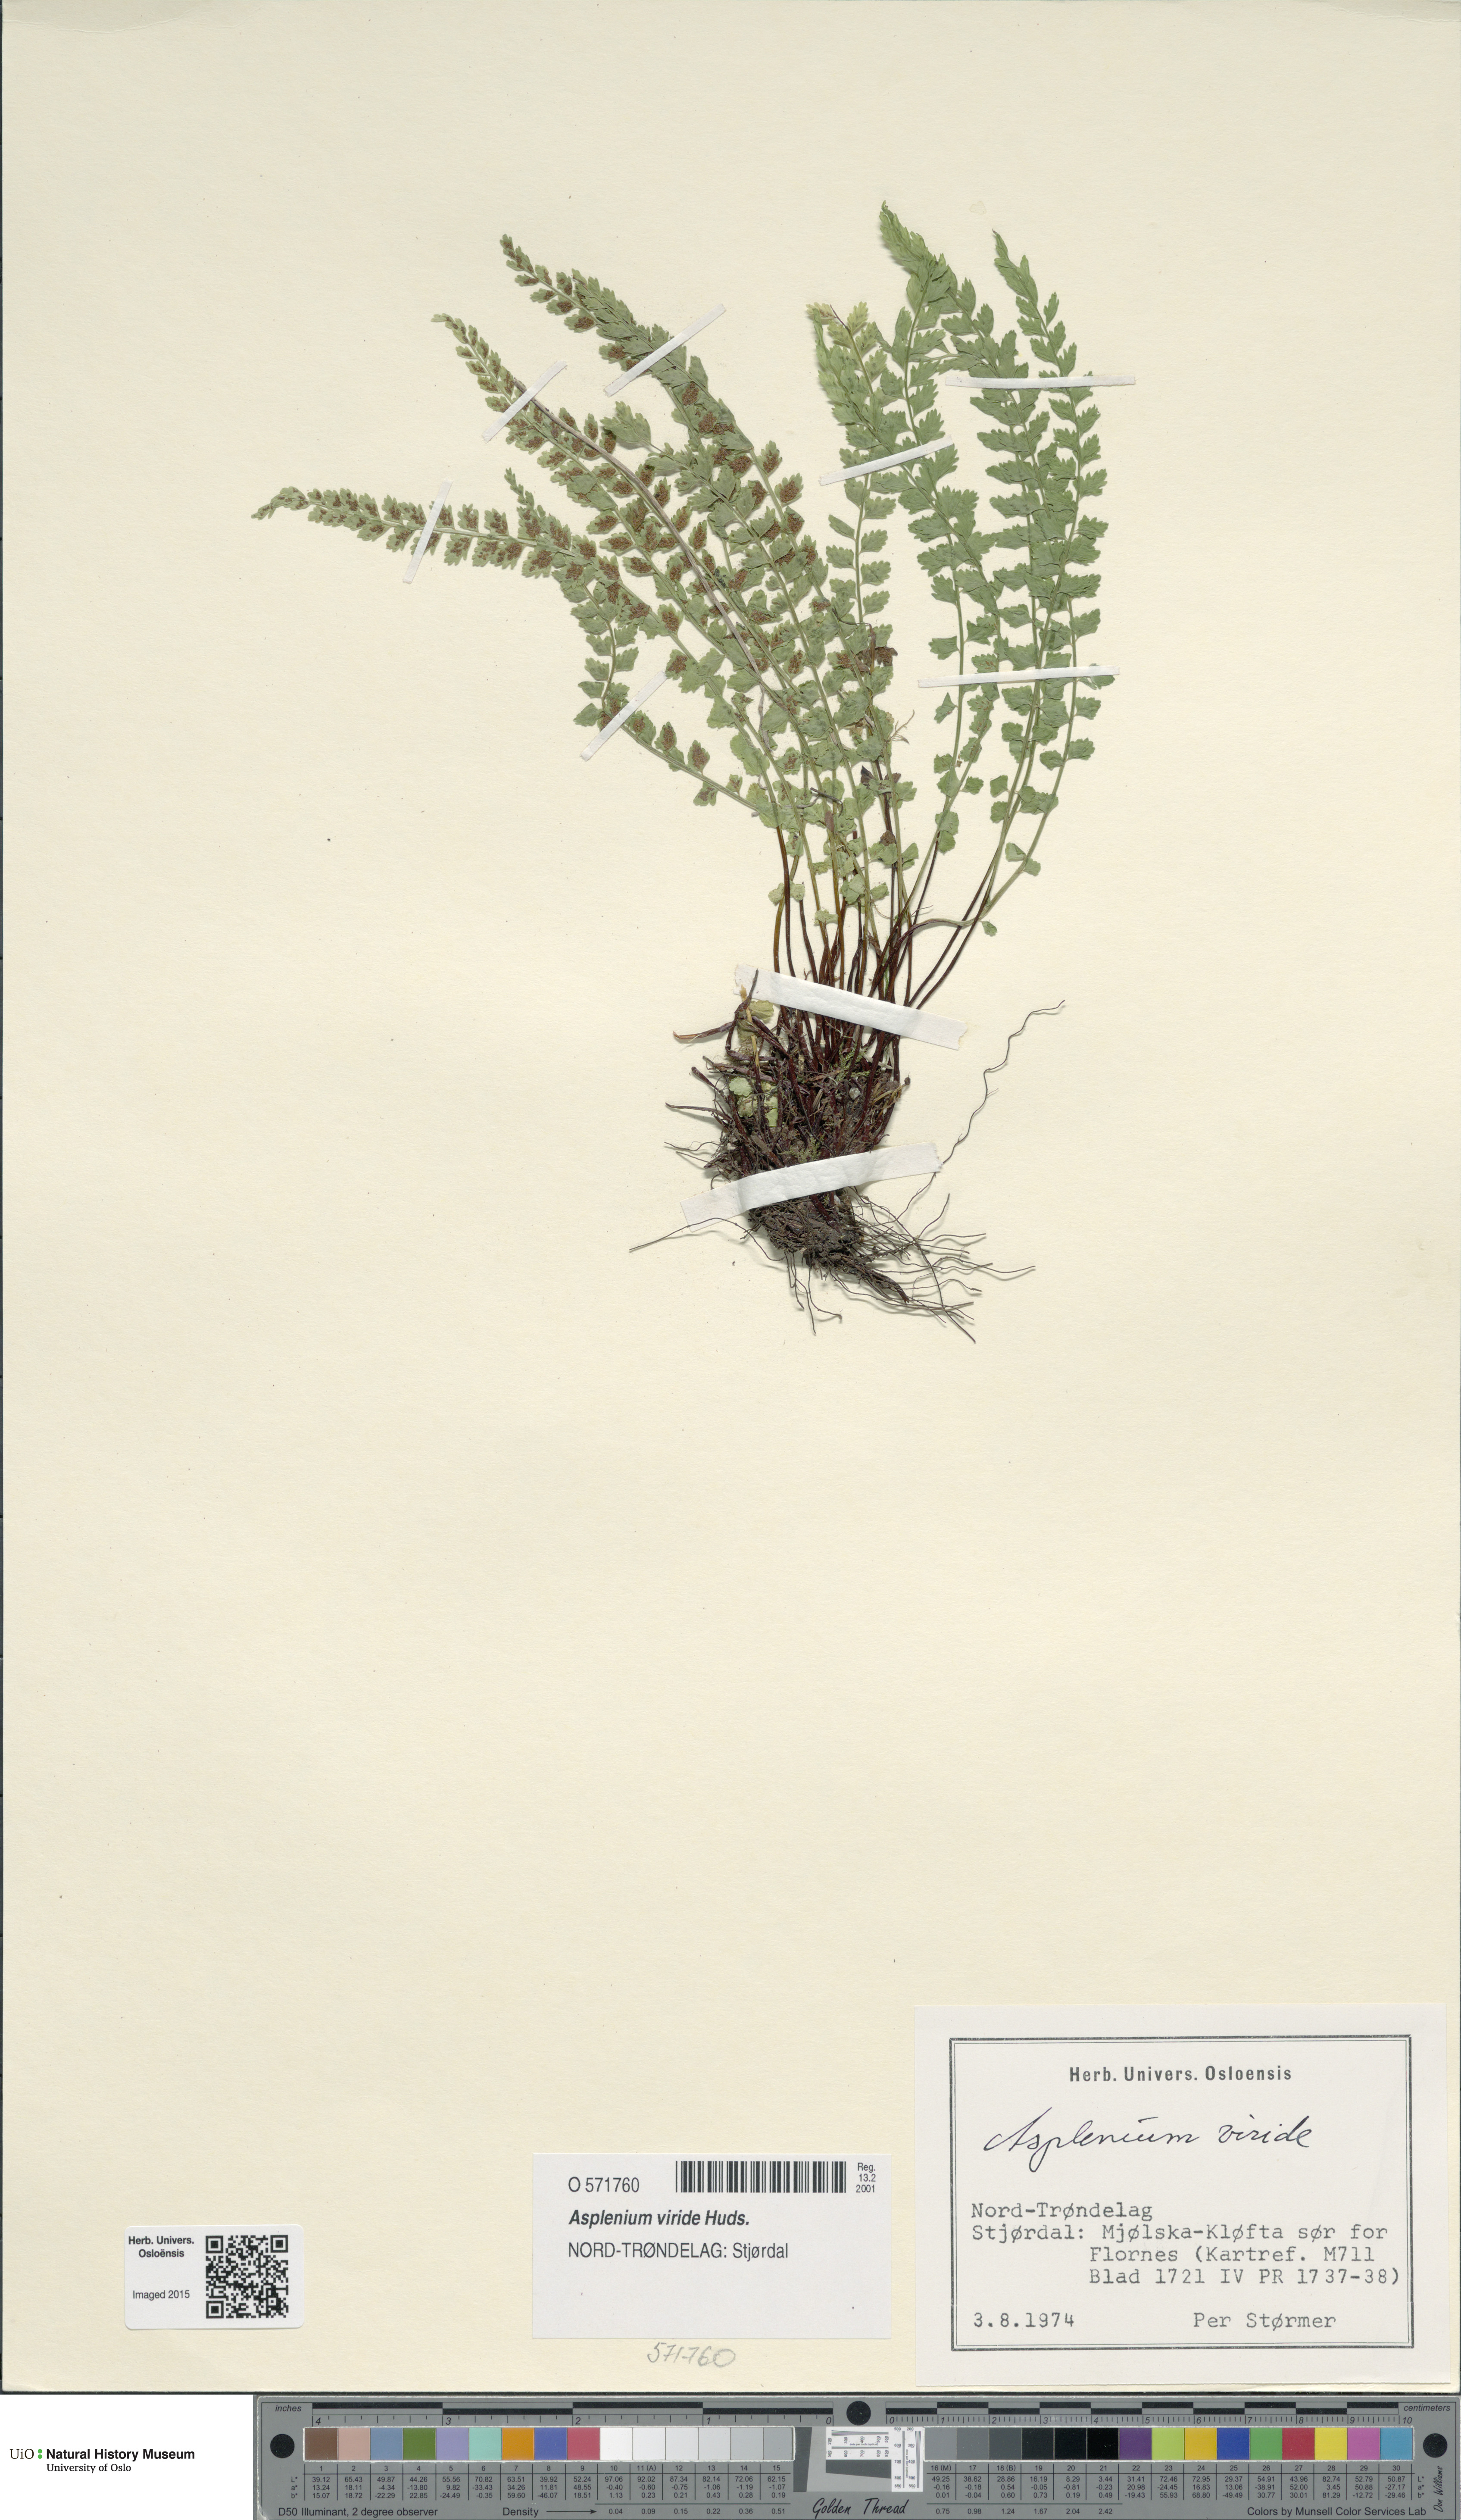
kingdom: Plantae
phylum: Tracheophyta
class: Polypodiopsida
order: Polypodiales
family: Aspleniaceae
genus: Asplenium
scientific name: Asplenium viride
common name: Green spleenwort
